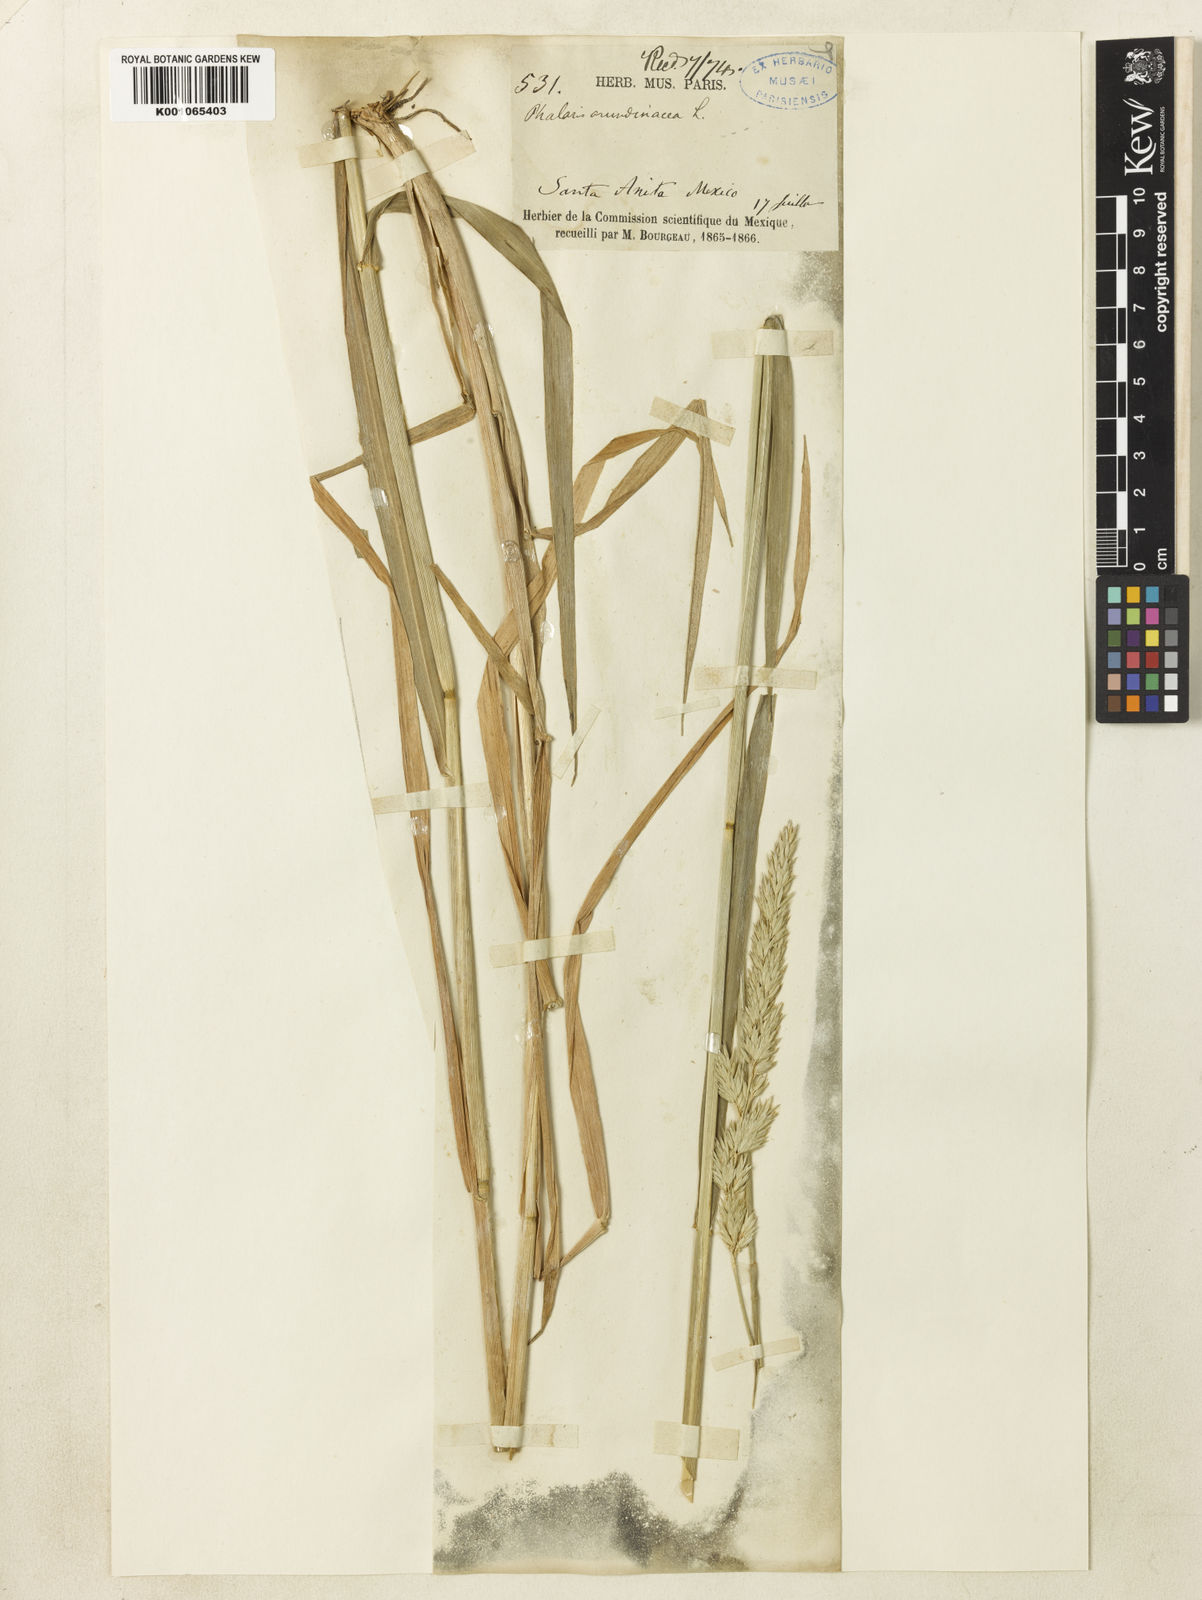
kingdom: Plantae
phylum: Tracheophyta
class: Liliopsida
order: Poales
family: Poaceae
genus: Phalaris
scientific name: Phalaris arundinacea
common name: Reed canary-grass
